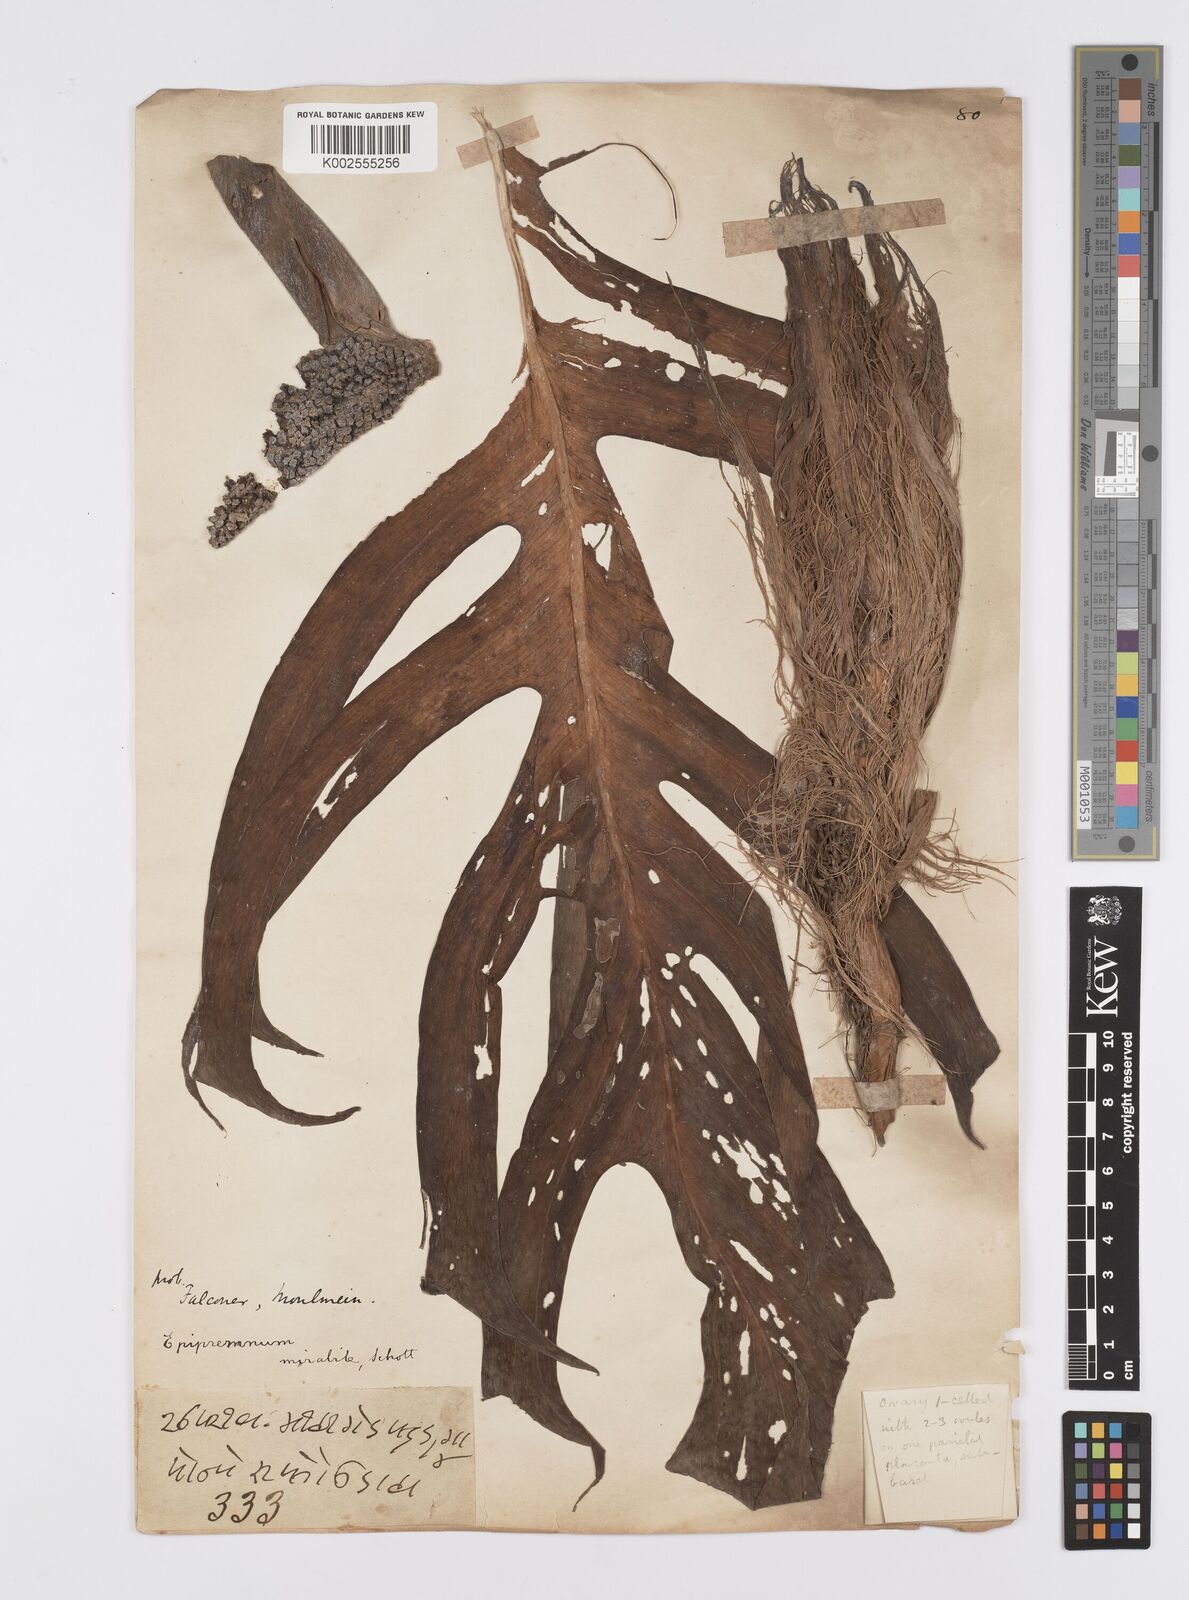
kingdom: Plantae
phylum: Tracheophyta
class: Liliopsida
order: Alismatales
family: Araceae
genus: Epipremnum
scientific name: Epipremnum pinnatum
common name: Centipede tongavine
